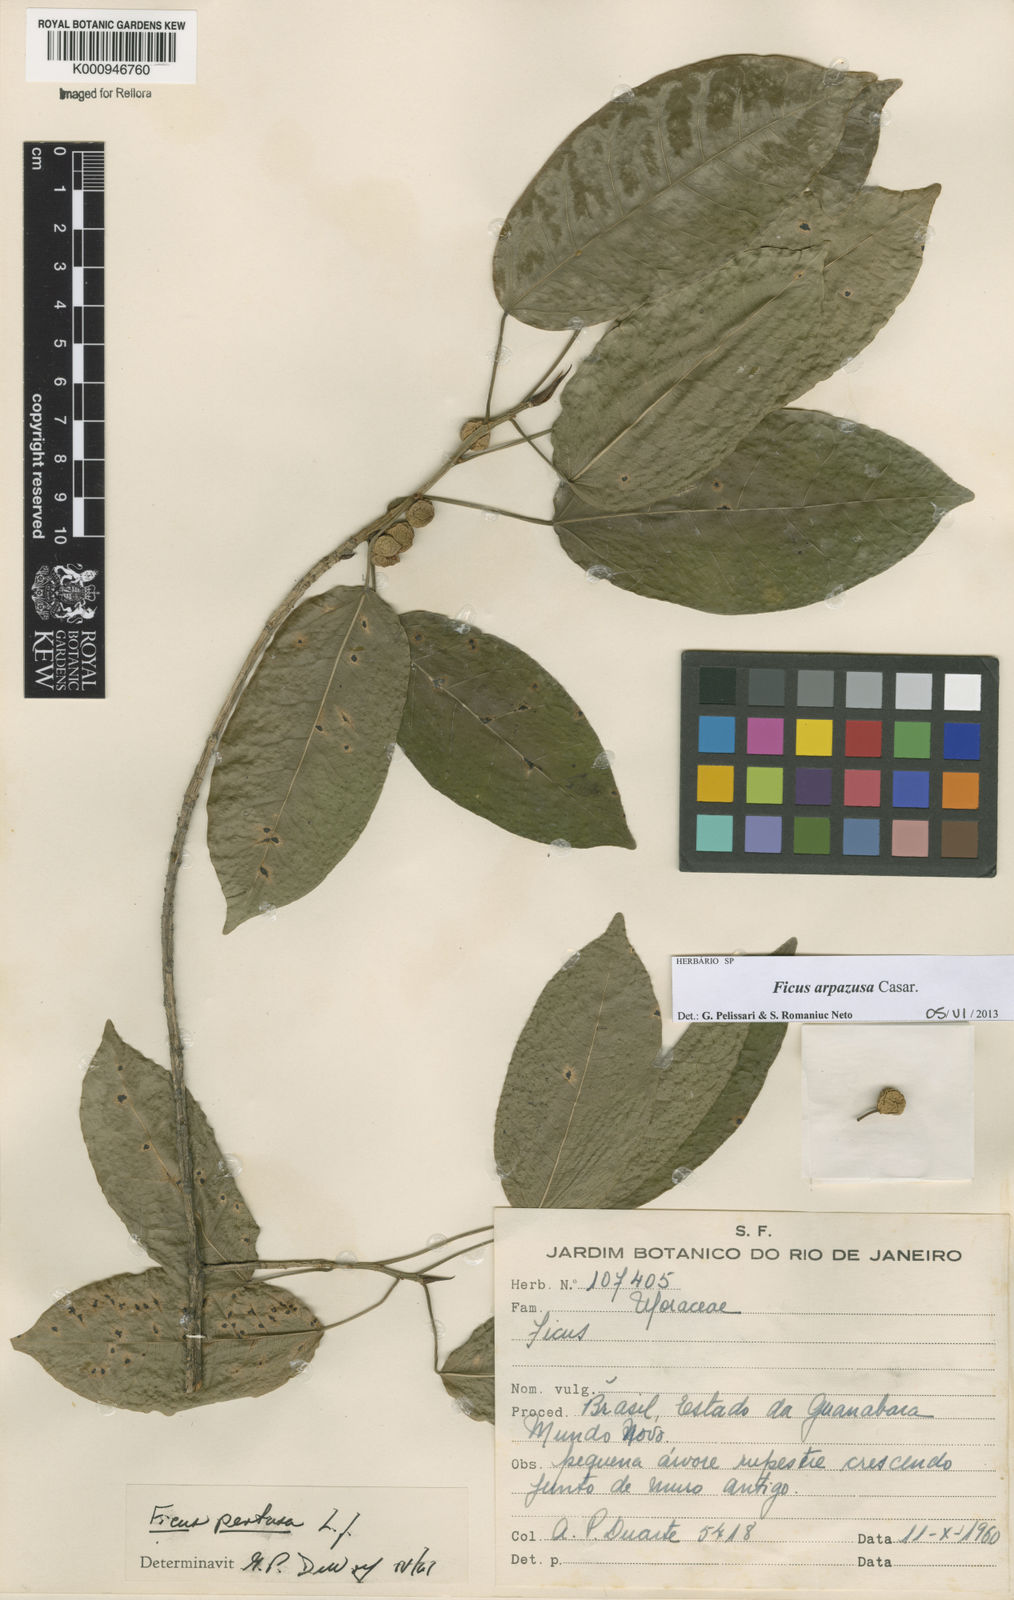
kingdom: Plantae
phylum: Tracheophyta
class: Magnoliopsida
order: Rosales
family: Moraceae
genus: Ficus
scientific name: Ficus arpazusa
